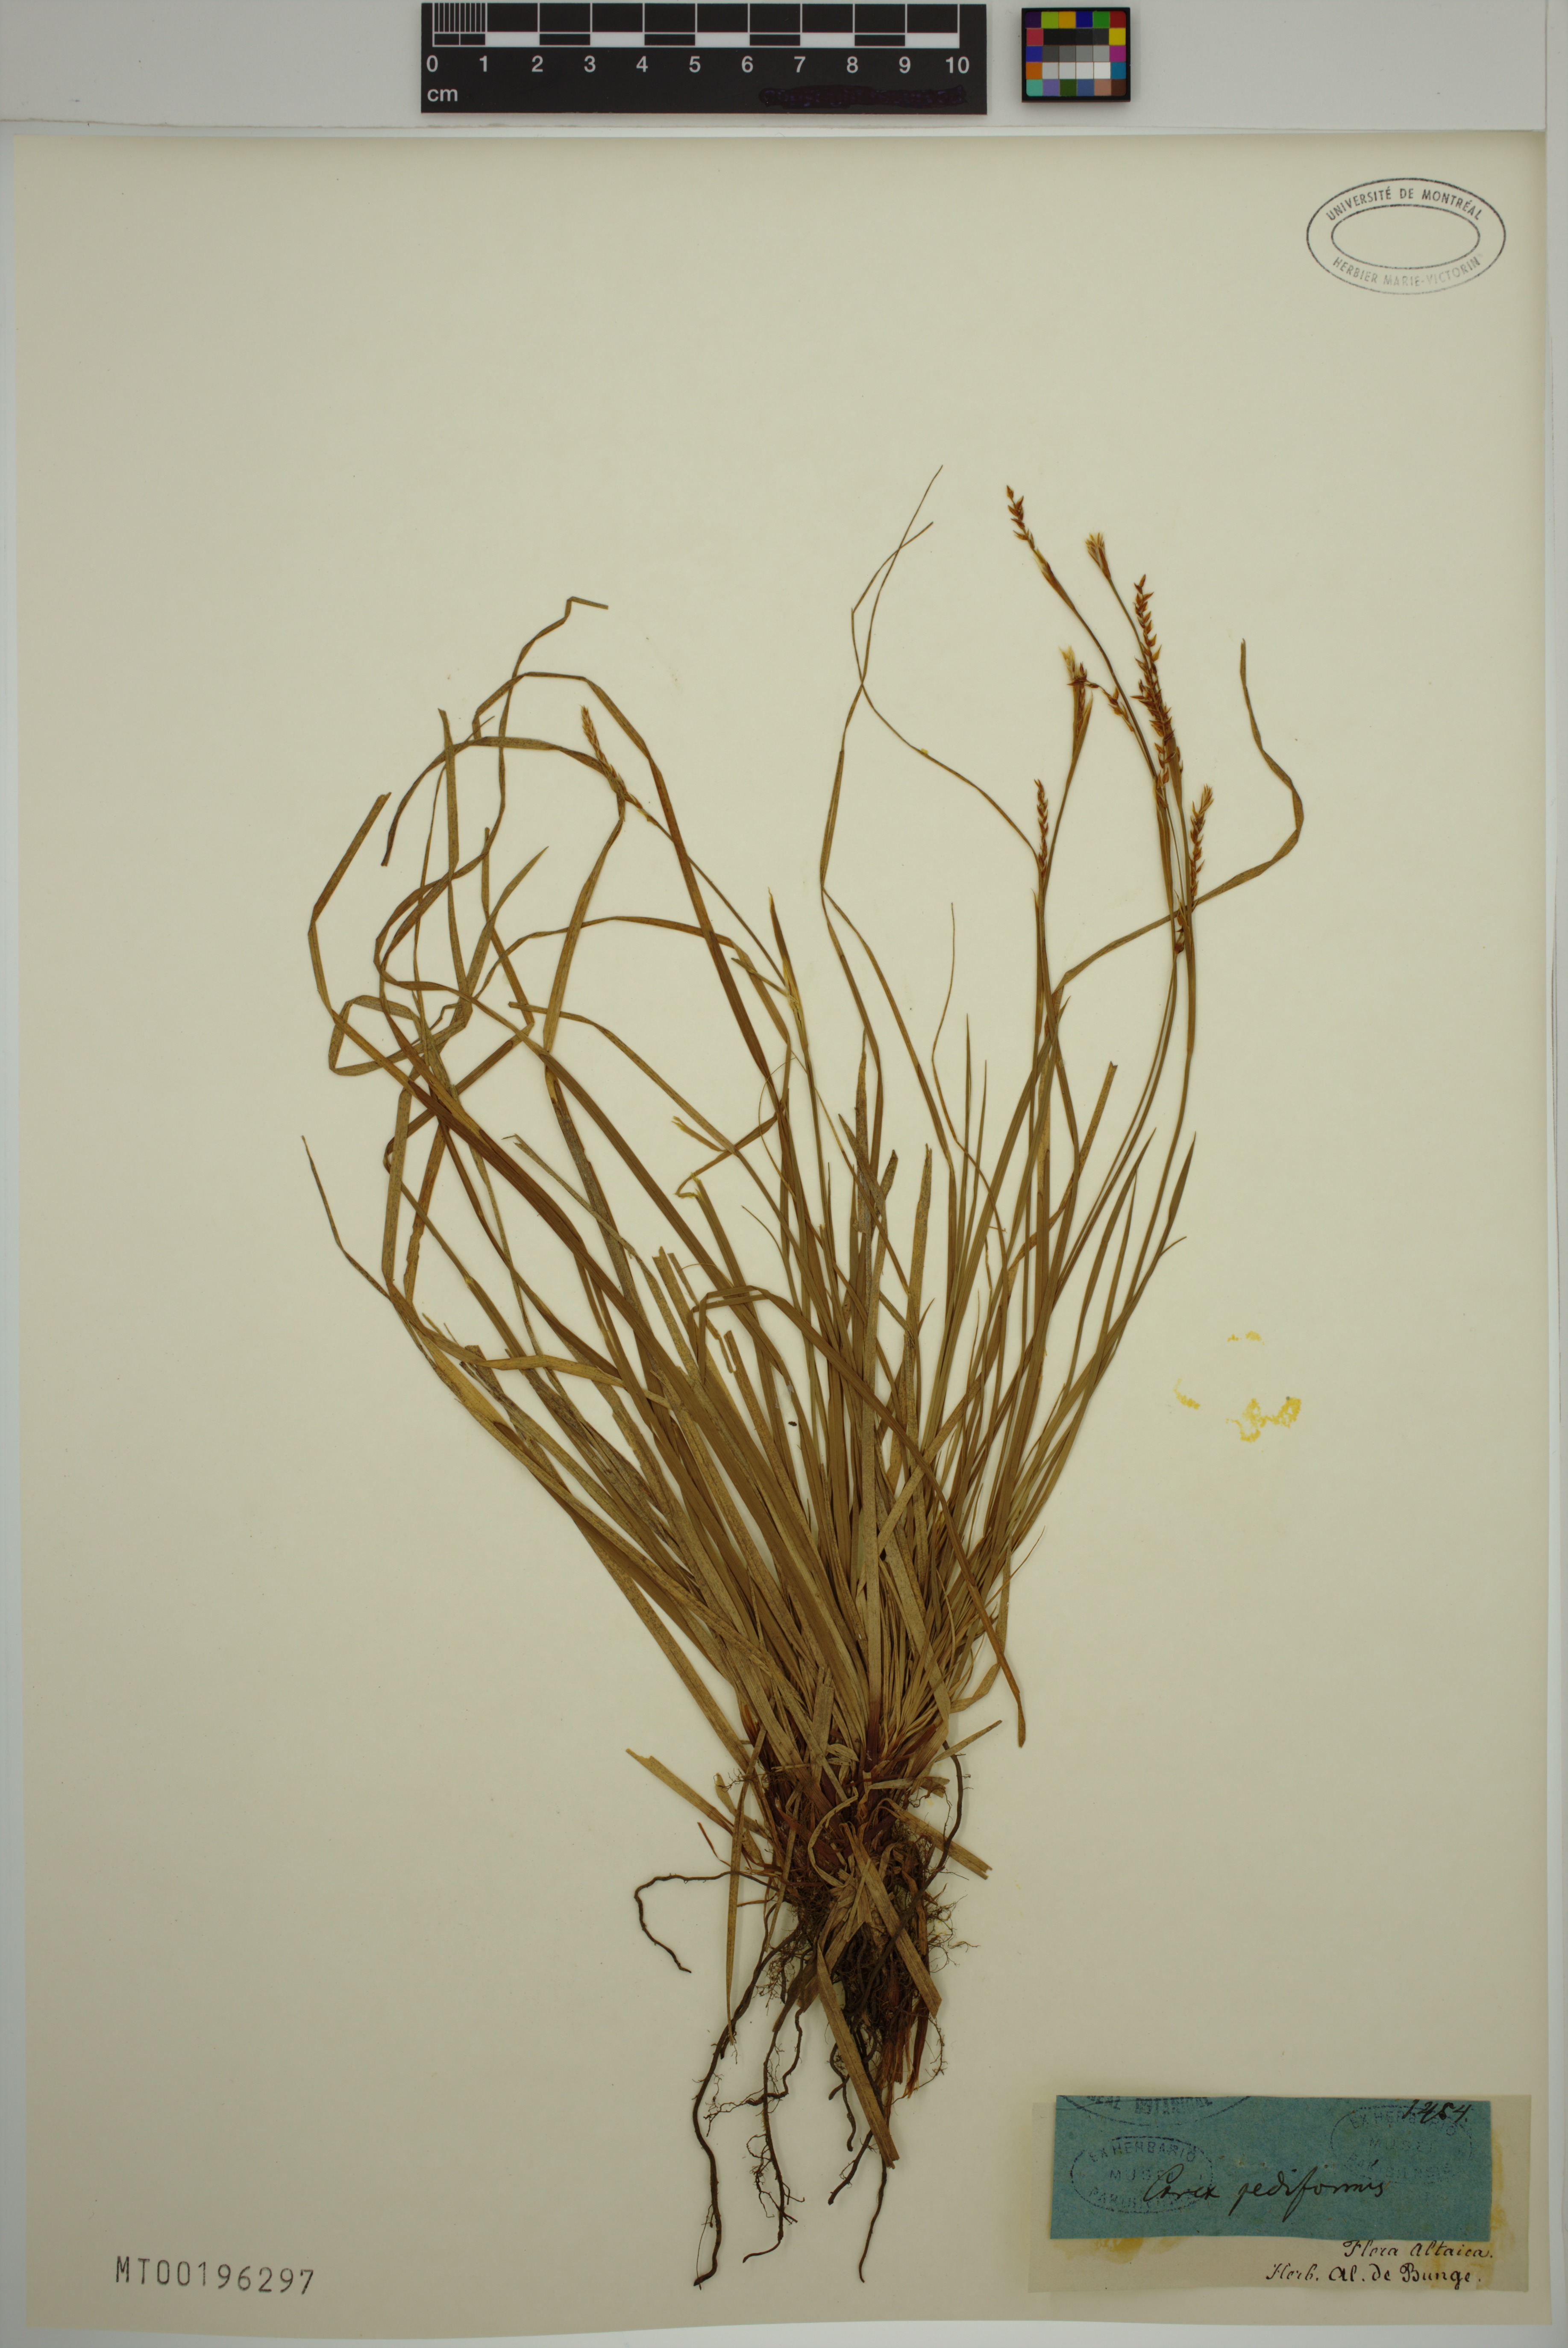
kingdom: Plantae
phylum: Tracheophyta
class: Liliopsida
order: Poales
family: Cyperaceae
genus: Carex
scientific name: Carex pediformis
